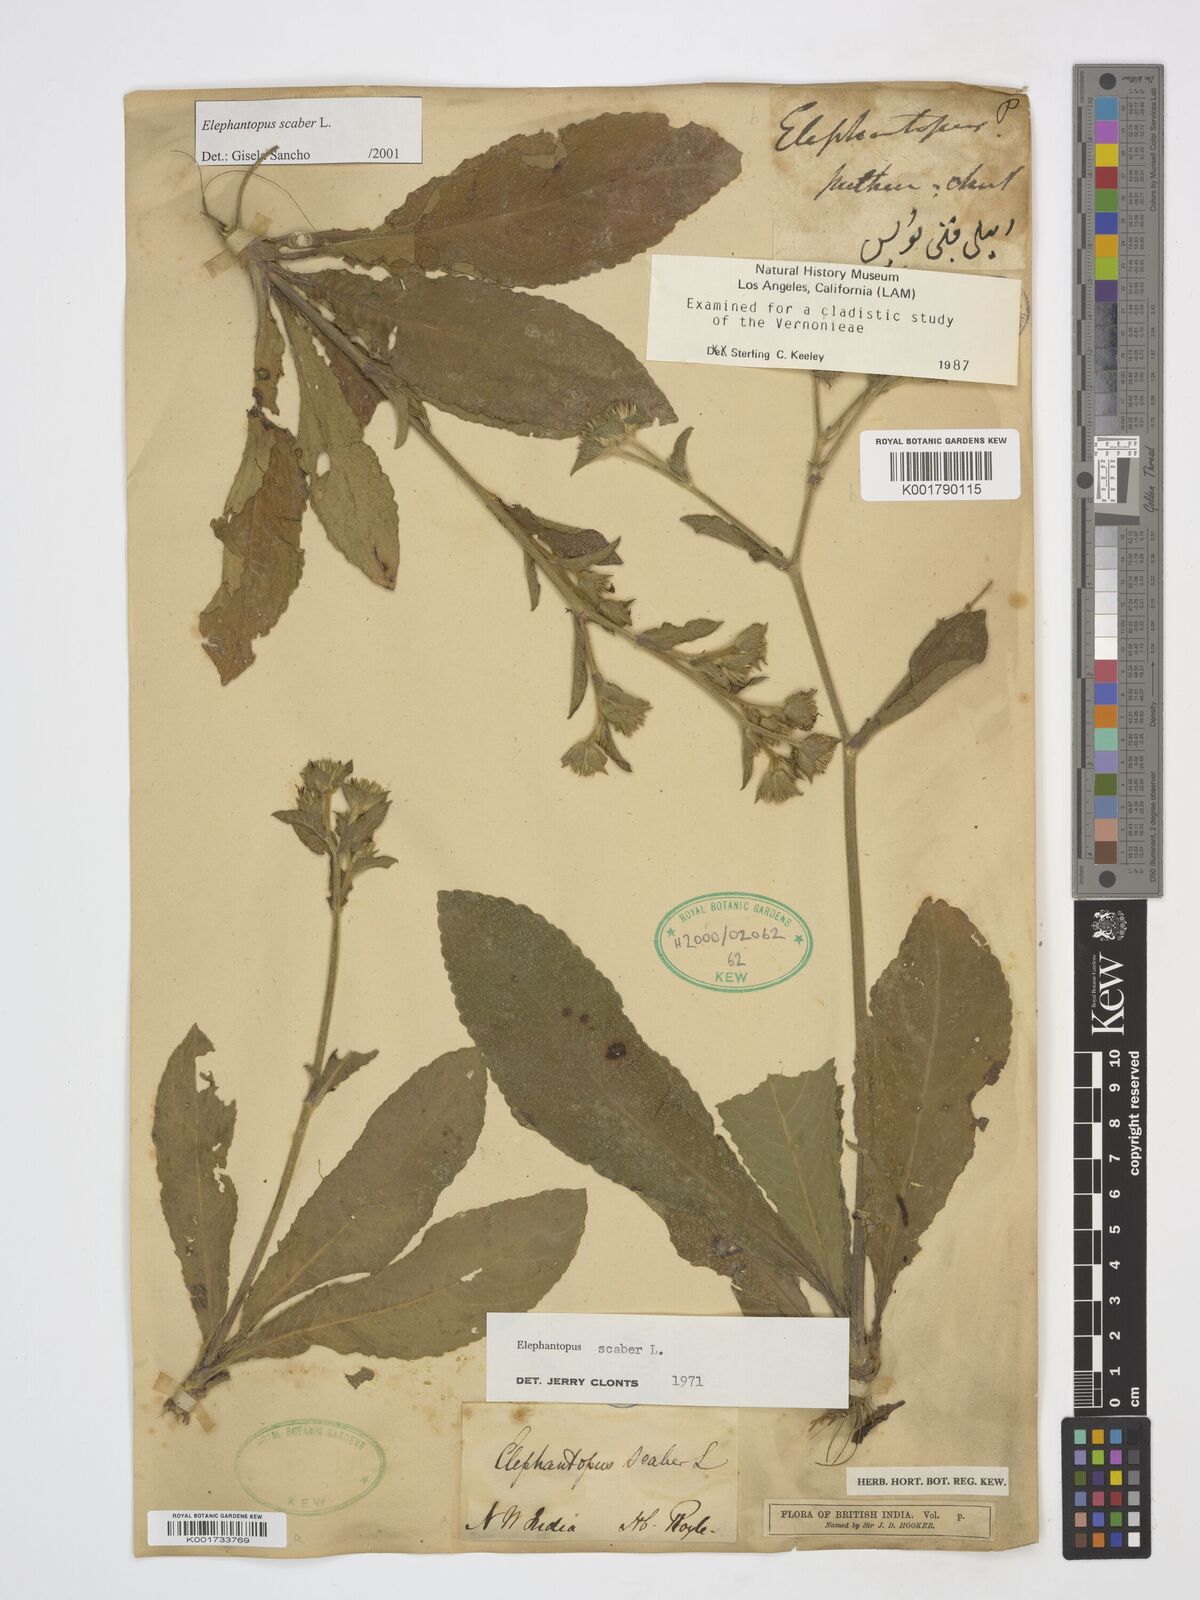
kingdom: Plantae
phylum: Tracheophyta
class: Magnoliopsida
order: Asterales
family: Asteraceae
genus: Elephantopus
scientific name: Elephantopus scaber
